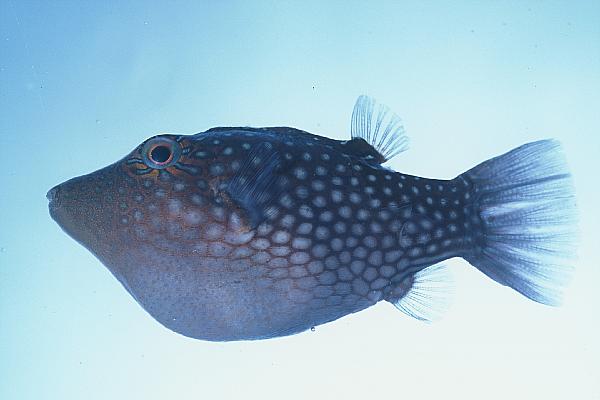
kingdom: Animalia
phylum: Chordata
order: Tetraodontiformes
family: Tetraodontidae
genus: Canthigaster
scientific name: Canthigaster janthinoptera
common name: Honeycomb toby
